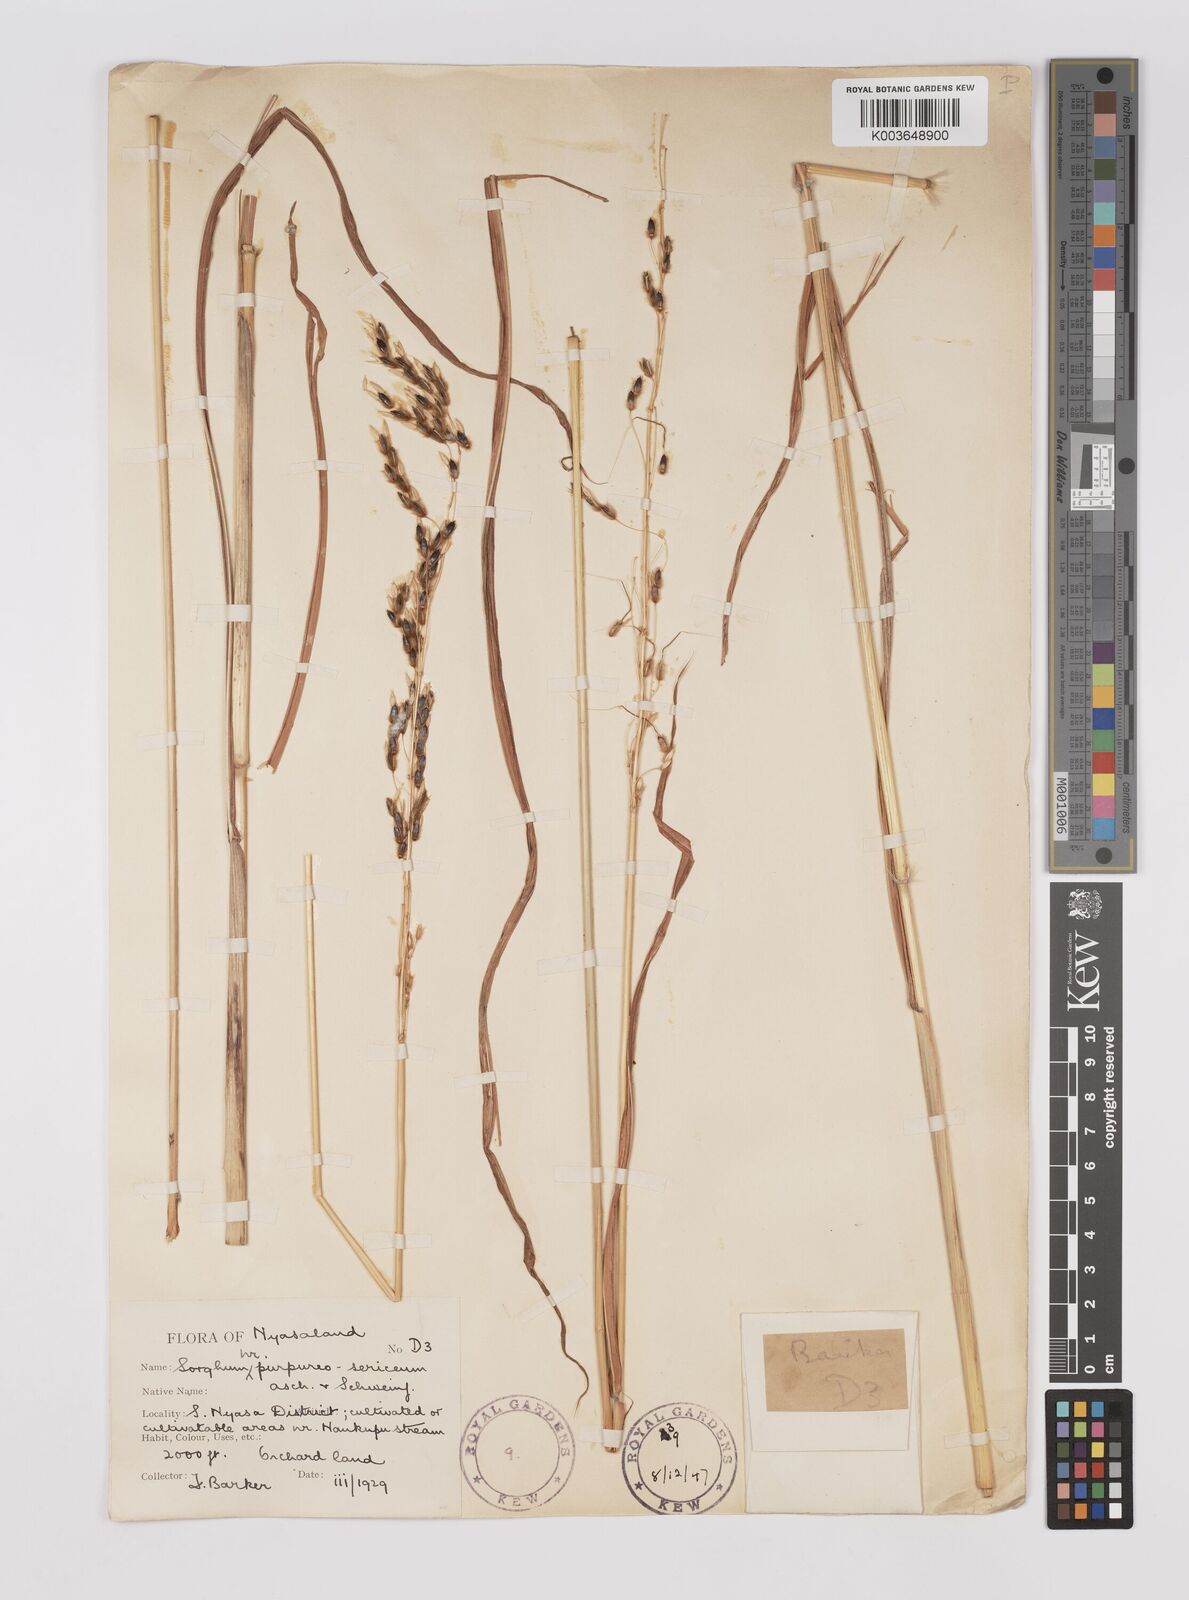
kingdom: Plantae
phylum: Tracheophyta
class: Liliopsida
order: Poales
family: Poaceae
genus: Sarga
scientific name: Sarga versicolor
